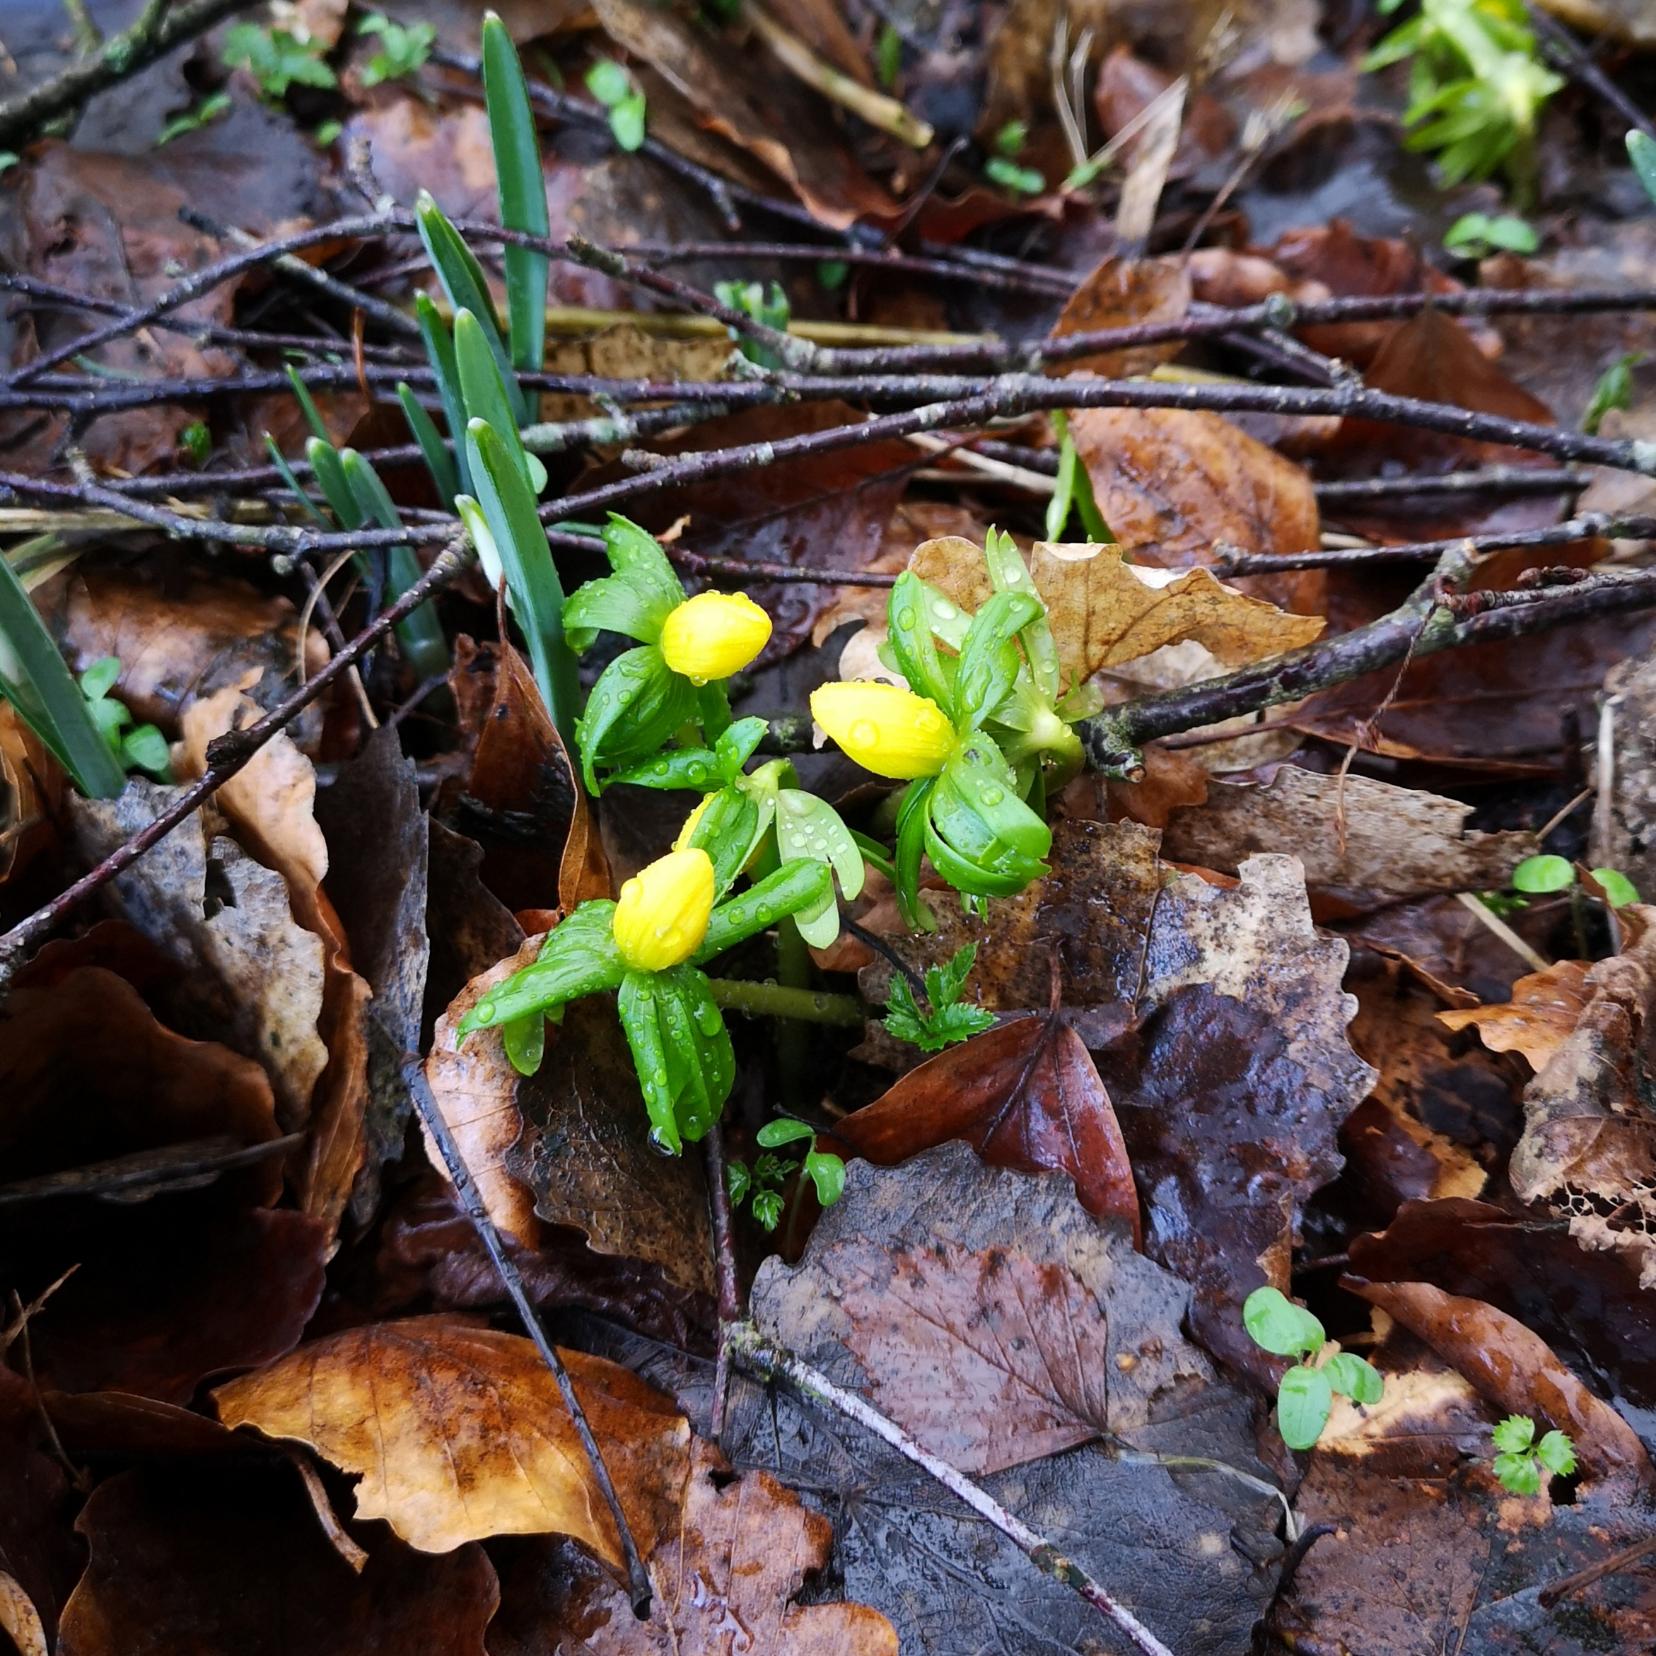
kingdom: Plantae
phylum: Tracheophyta
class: Magnoliopsida
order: Ranunculales
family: Ranunculaceae
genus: Eranthis
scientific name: Eranthis hyemalis
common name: Erantis
